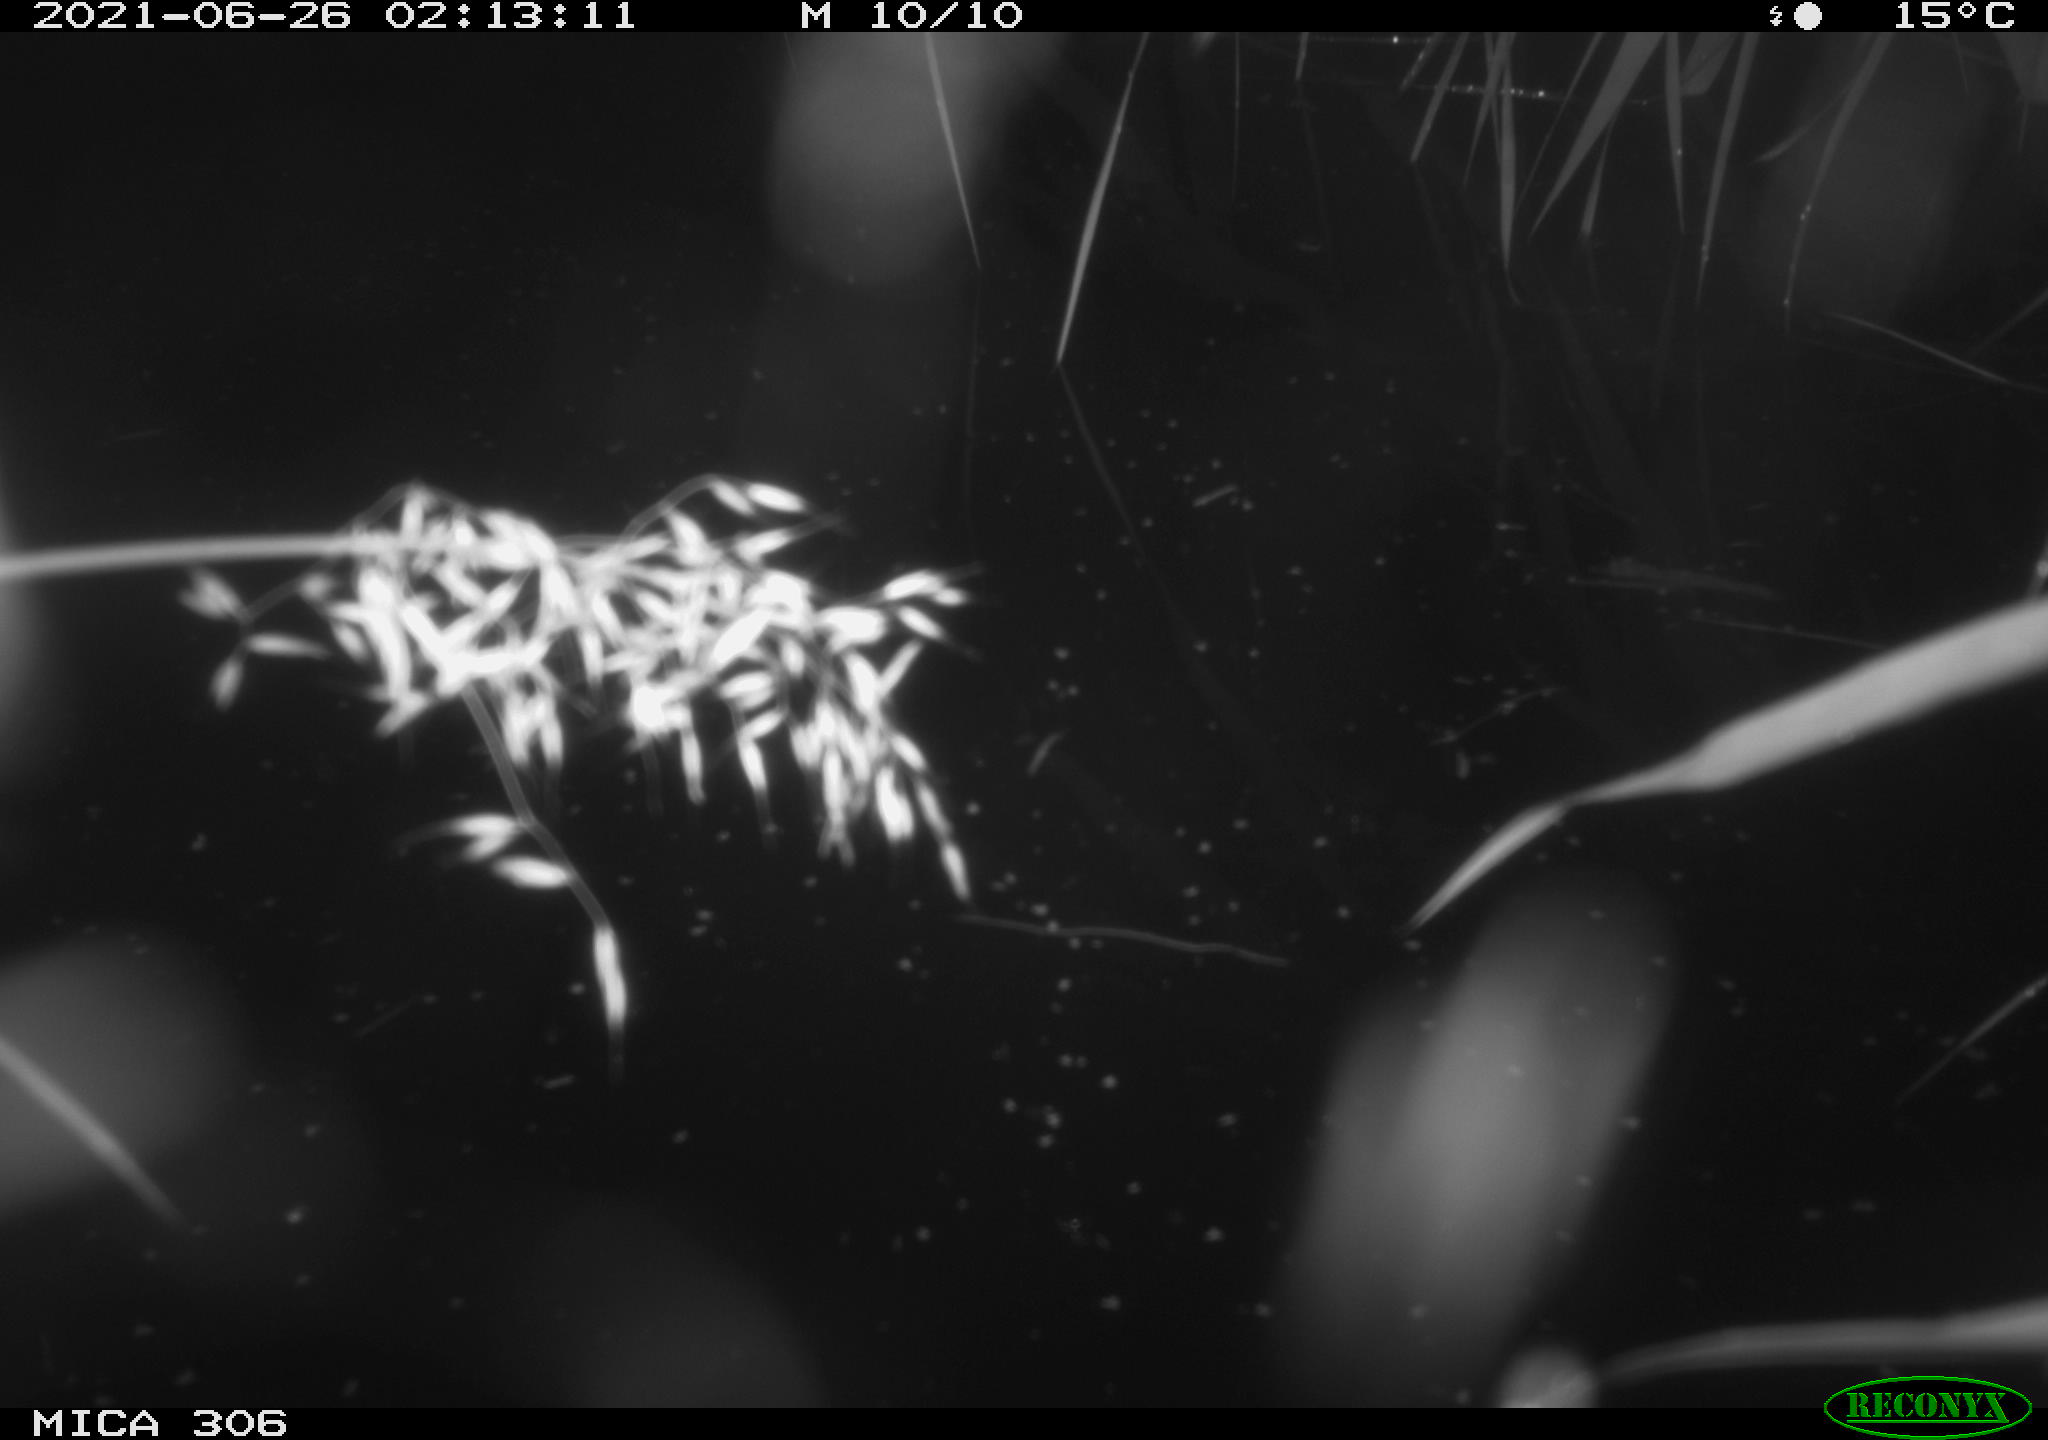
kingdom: Animalia
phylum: Chordata
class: Mammalia
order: Rodentia
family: Cricetidae
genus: Ondatra
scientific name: Ondatra zibethicus
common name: Muskrat
